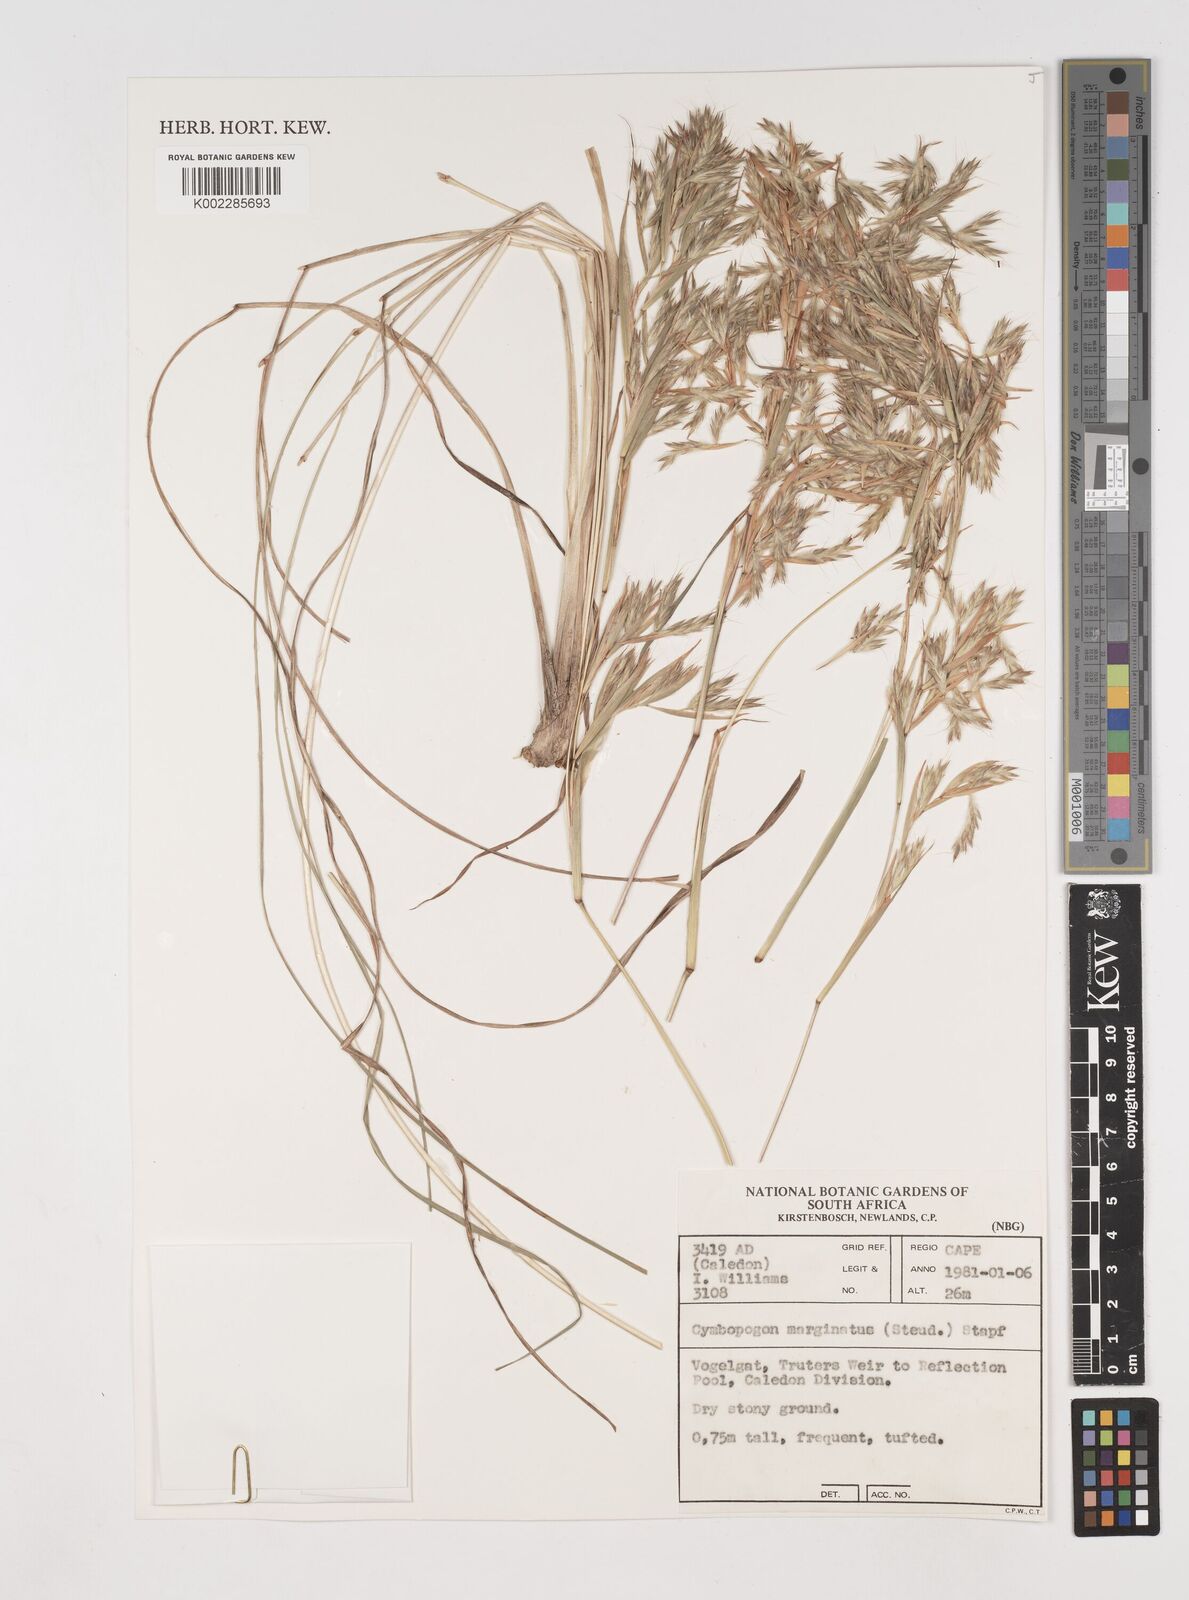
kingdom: Plantae
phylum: Tracheophyta
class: Liliopsida
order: Poales
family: Poaceae
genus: Cymbopogon
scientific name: Cymbopogon marginatus
